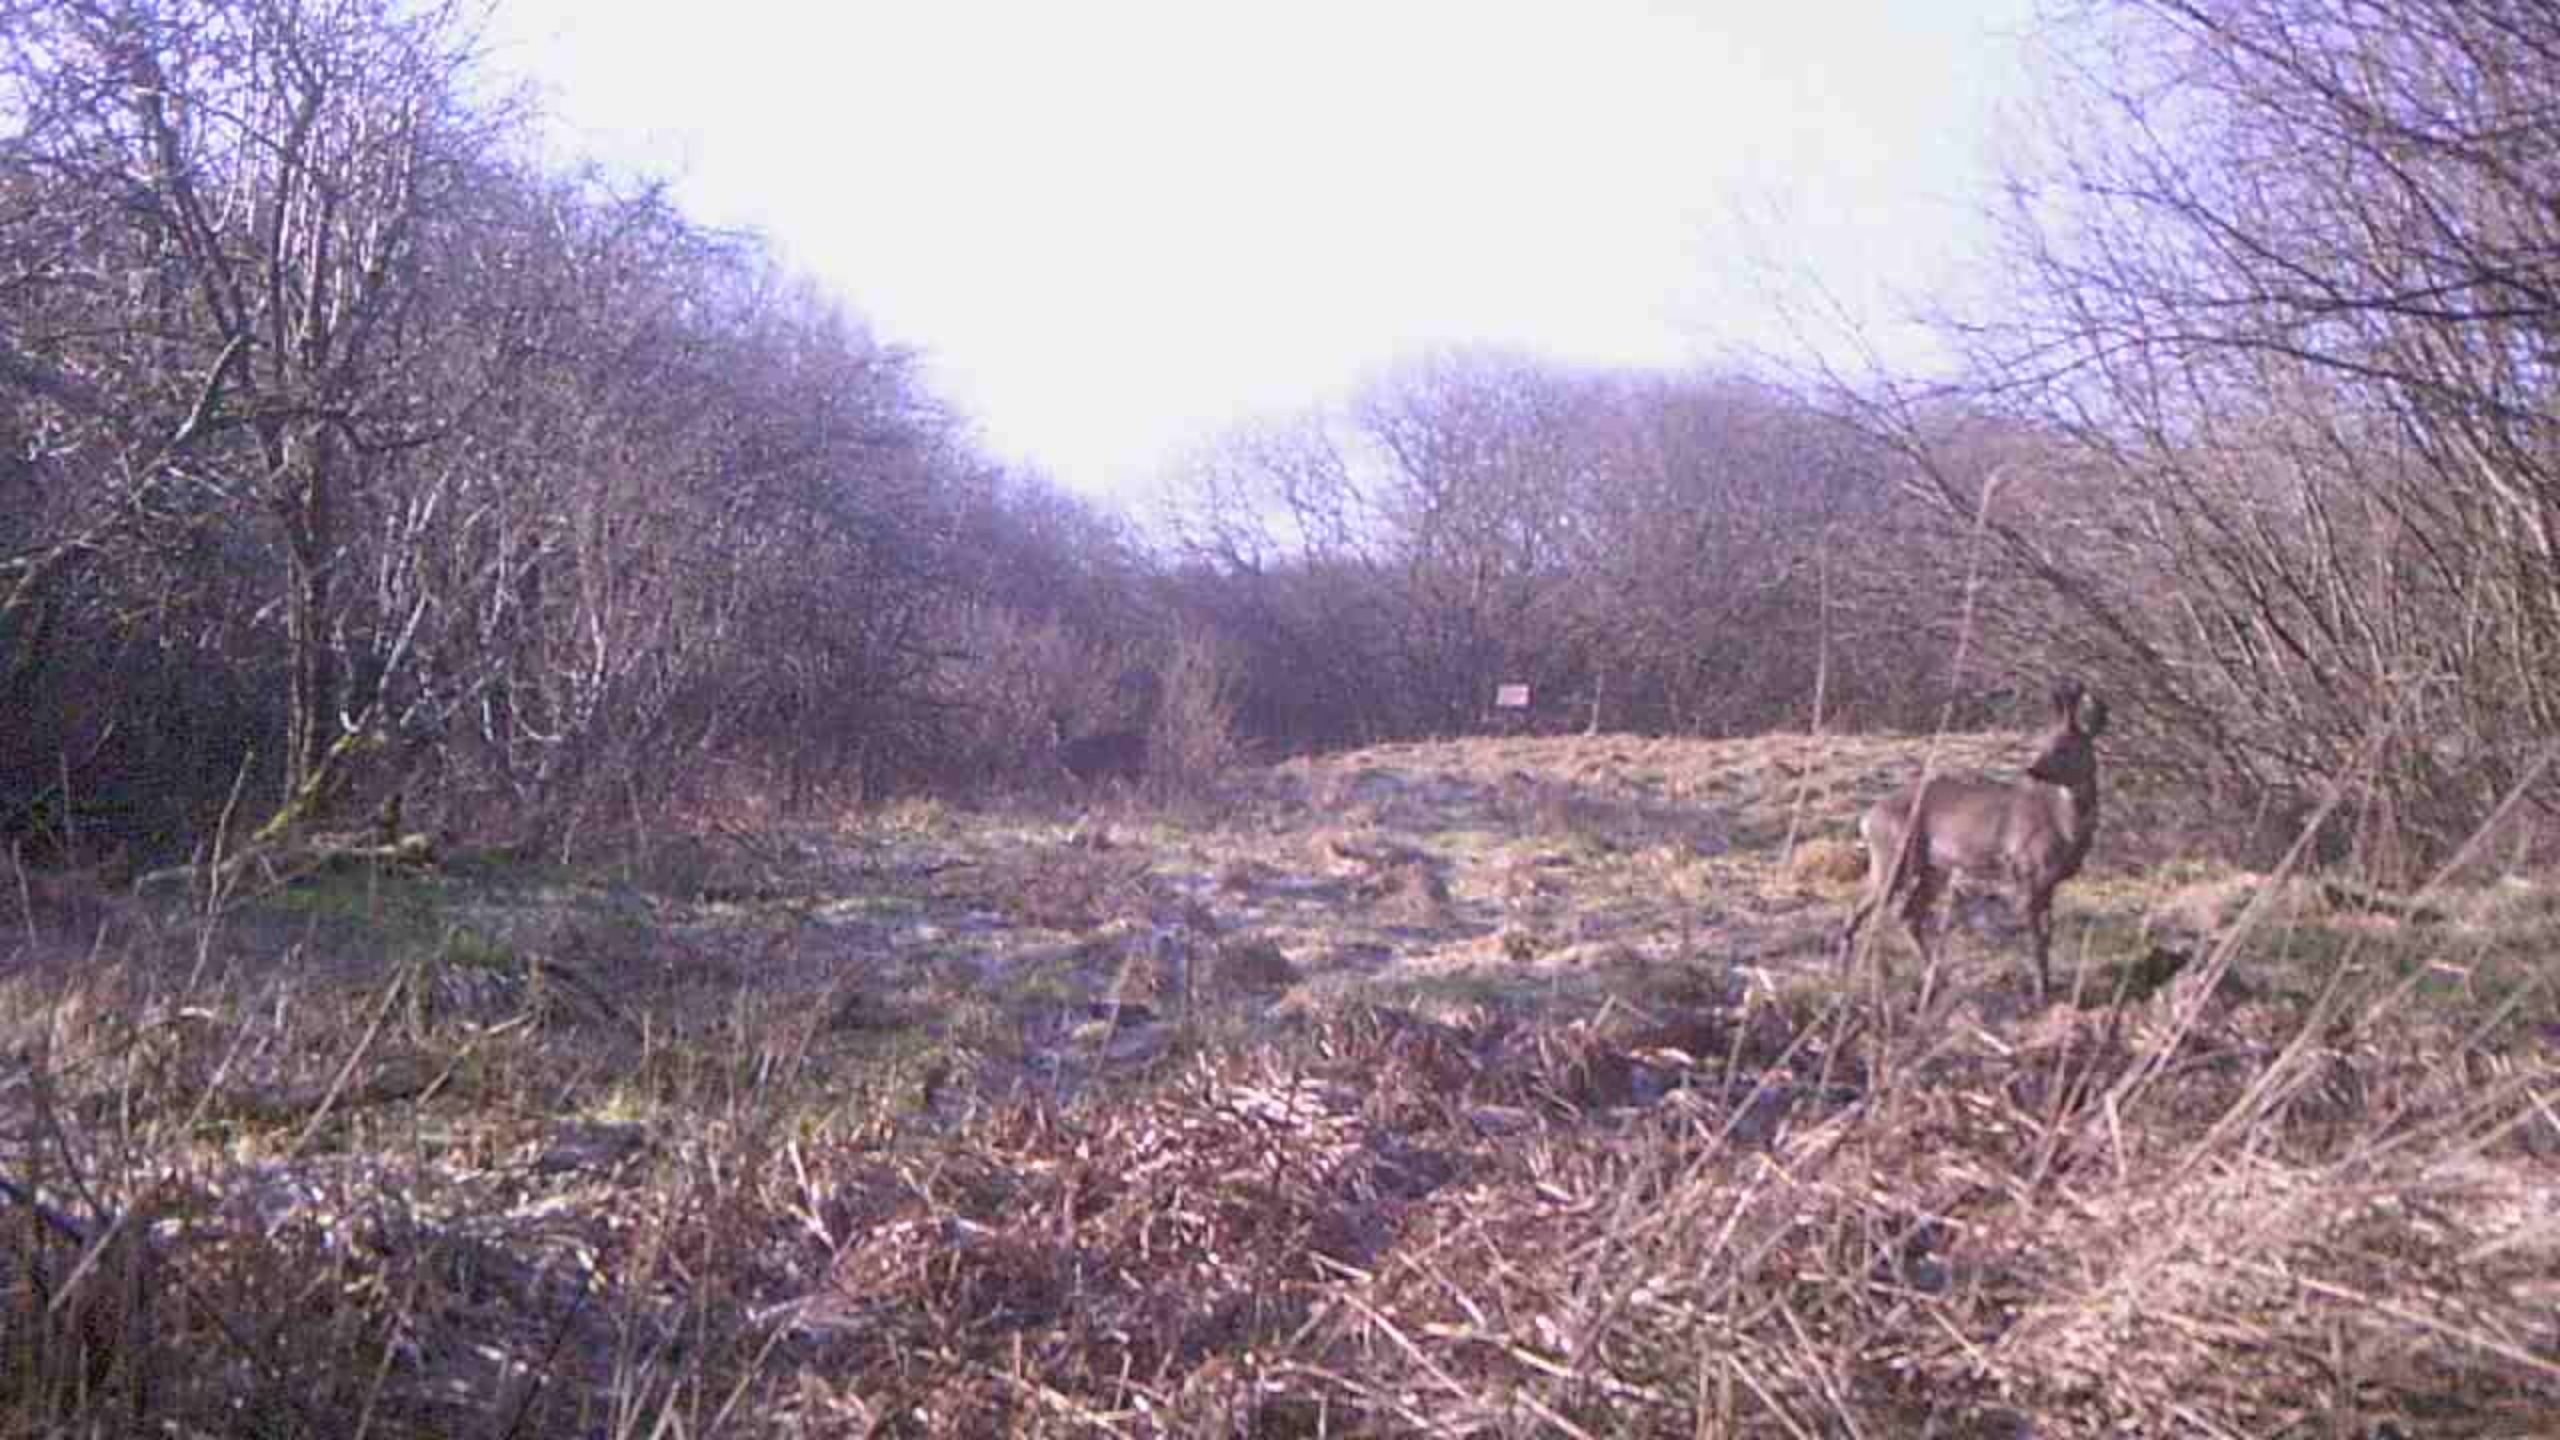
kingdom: Animalia
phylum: Chordata
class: Mammalia
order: Artiodactyla
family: Cervidae
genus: Capreolus
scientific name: Capreolus capreolus
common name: Rådyr
